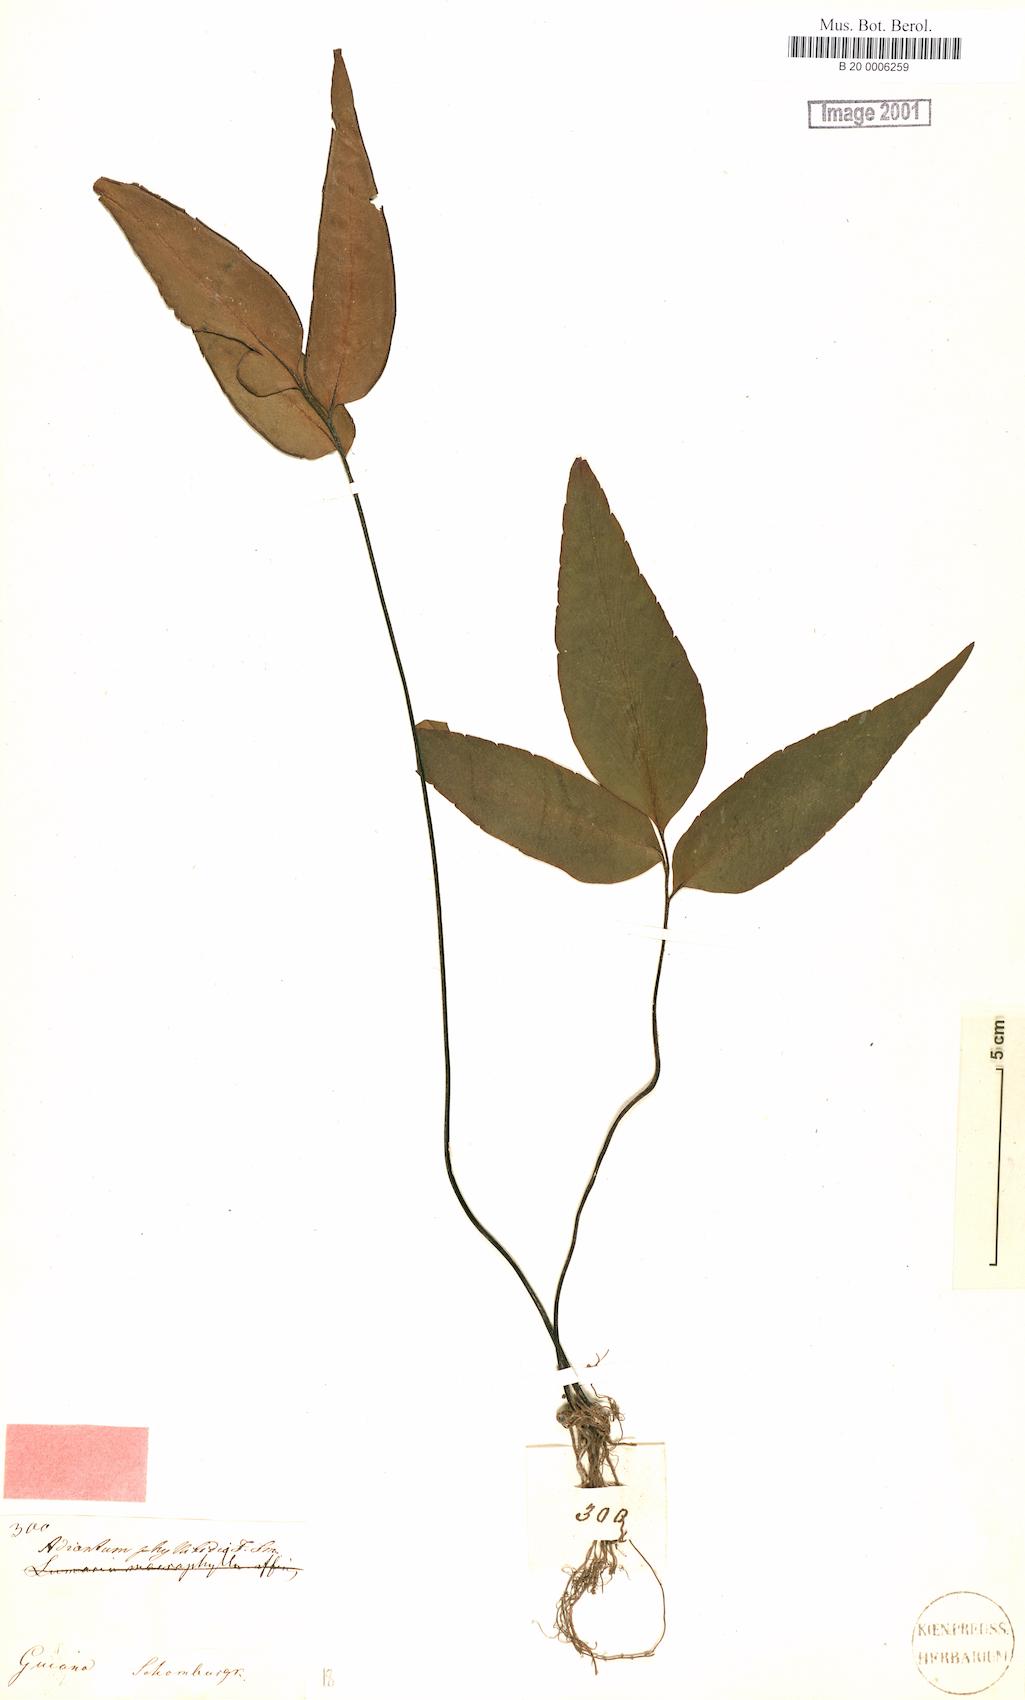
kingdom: Plantae
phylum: Tracheophyta
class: Polypodiopsida
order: Polypodiales
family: Pteridaceae
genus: Adiantum
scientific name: Adiantum phyllitidis
